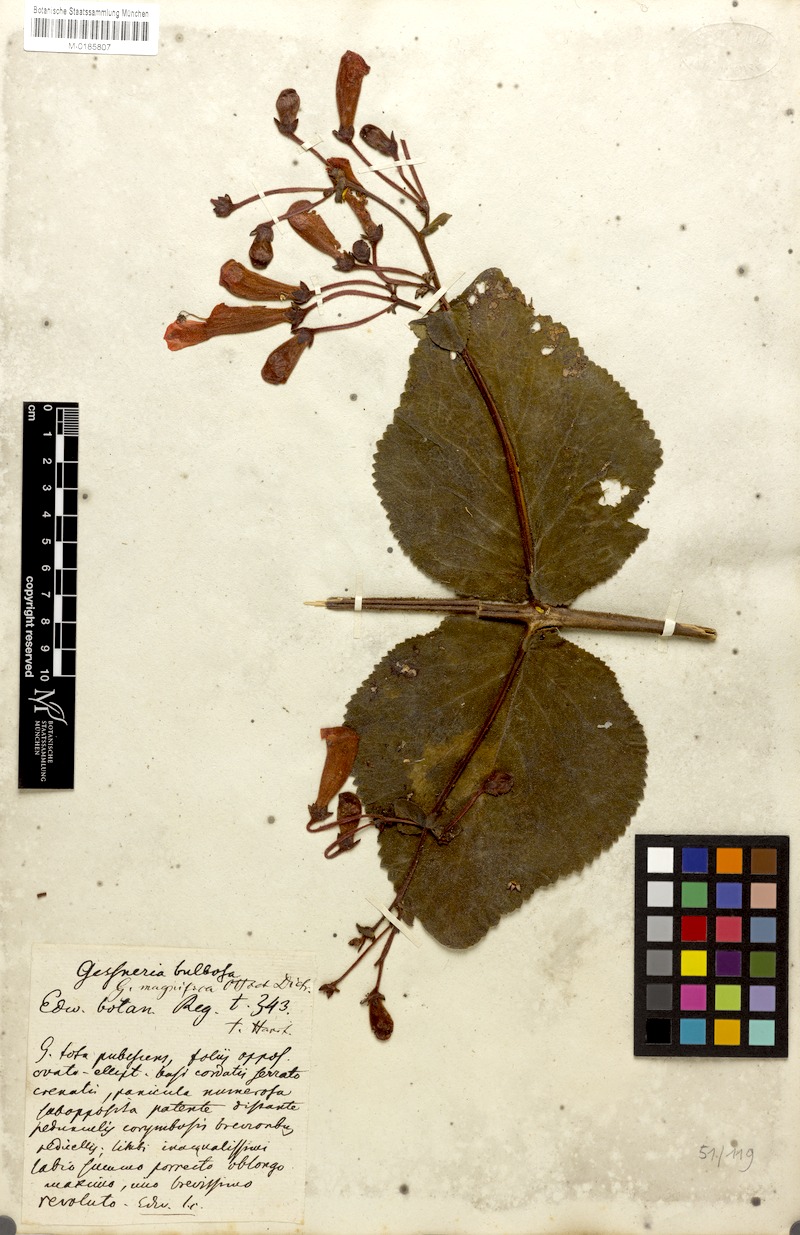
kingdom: Plantae
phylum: Tracheophyta
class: Magnoliopsida
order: Lamiales
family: Gesneriaceae
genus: Sinningia
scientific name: Sinningia magnifica
